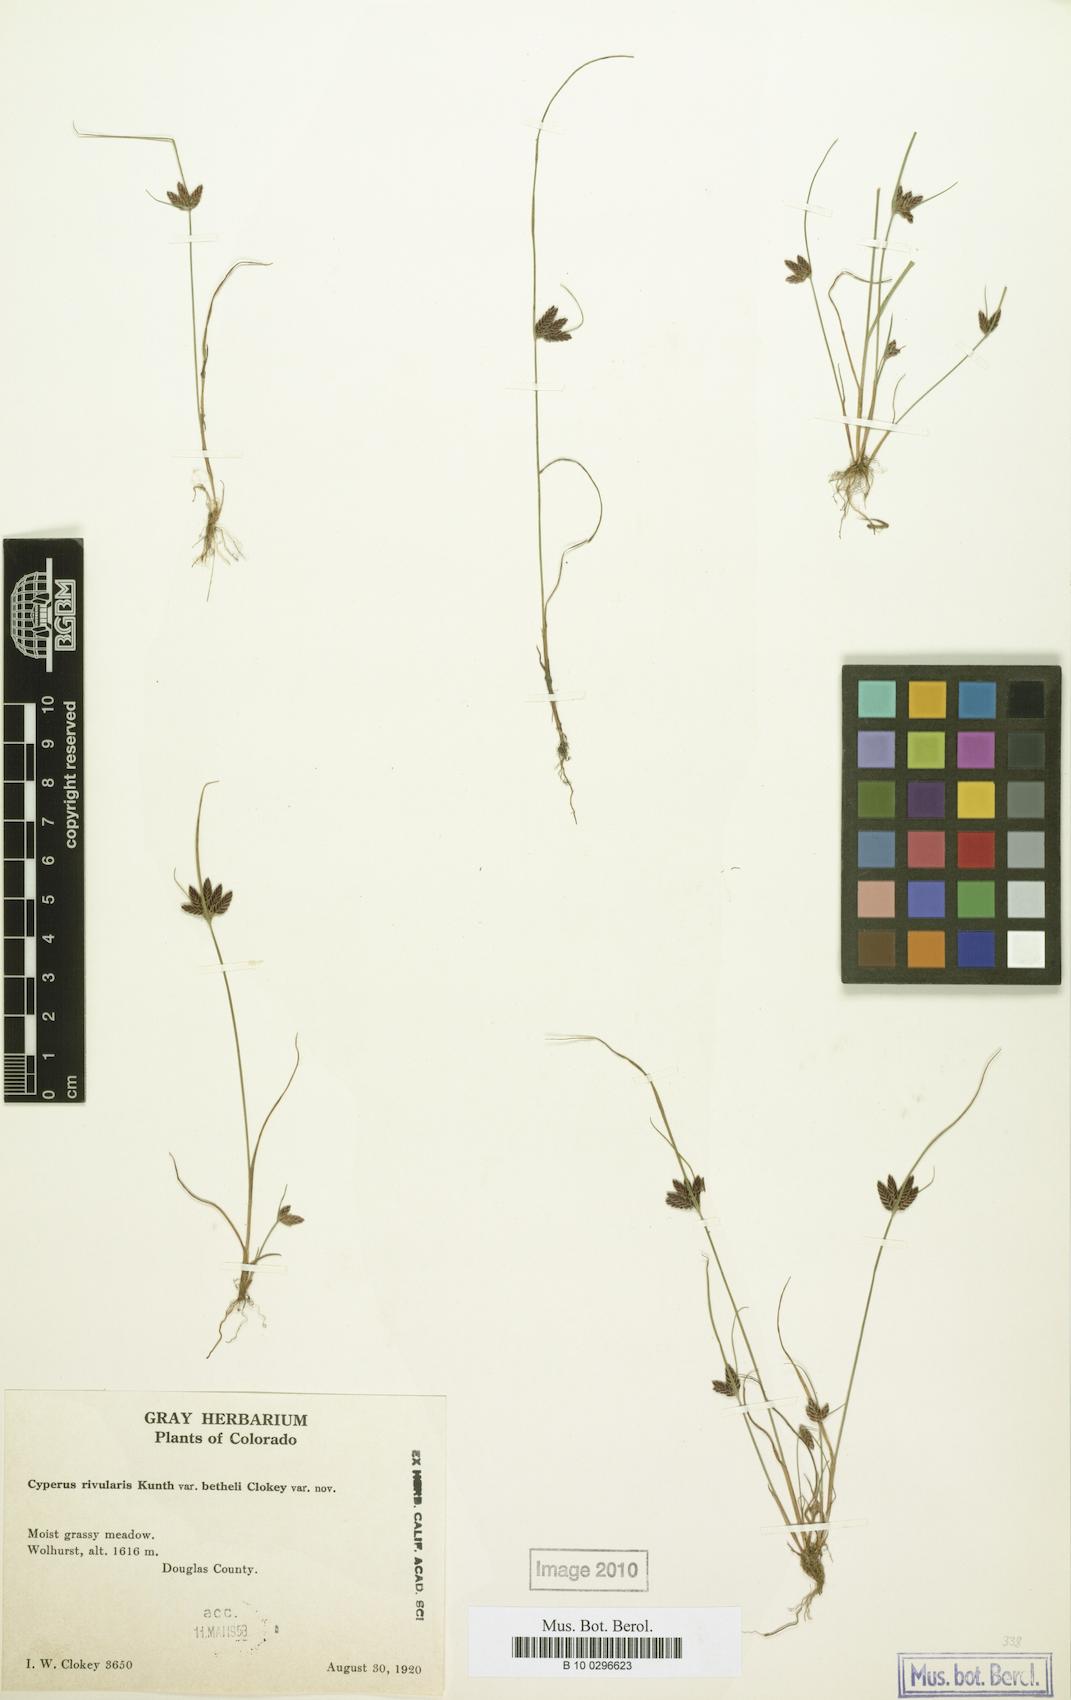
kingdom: Plantae
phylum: Tracheophyta
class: Liliopsida
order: Poales
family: Cyperaceae
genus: Cyperus
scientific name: Cyperus
